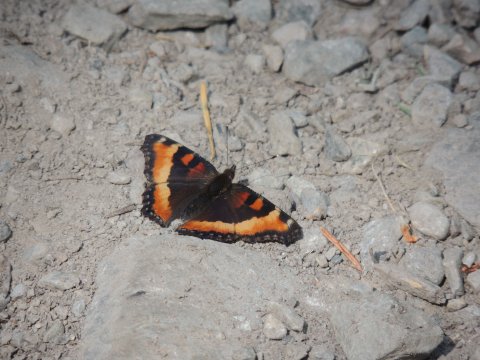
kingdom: Animalia
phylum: Arthropoda
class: Insecta
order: Lepidoptera
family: Nymphalidae
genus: Aglais
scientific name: Aglais milberti
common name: Milbert's Tortoiseshell
